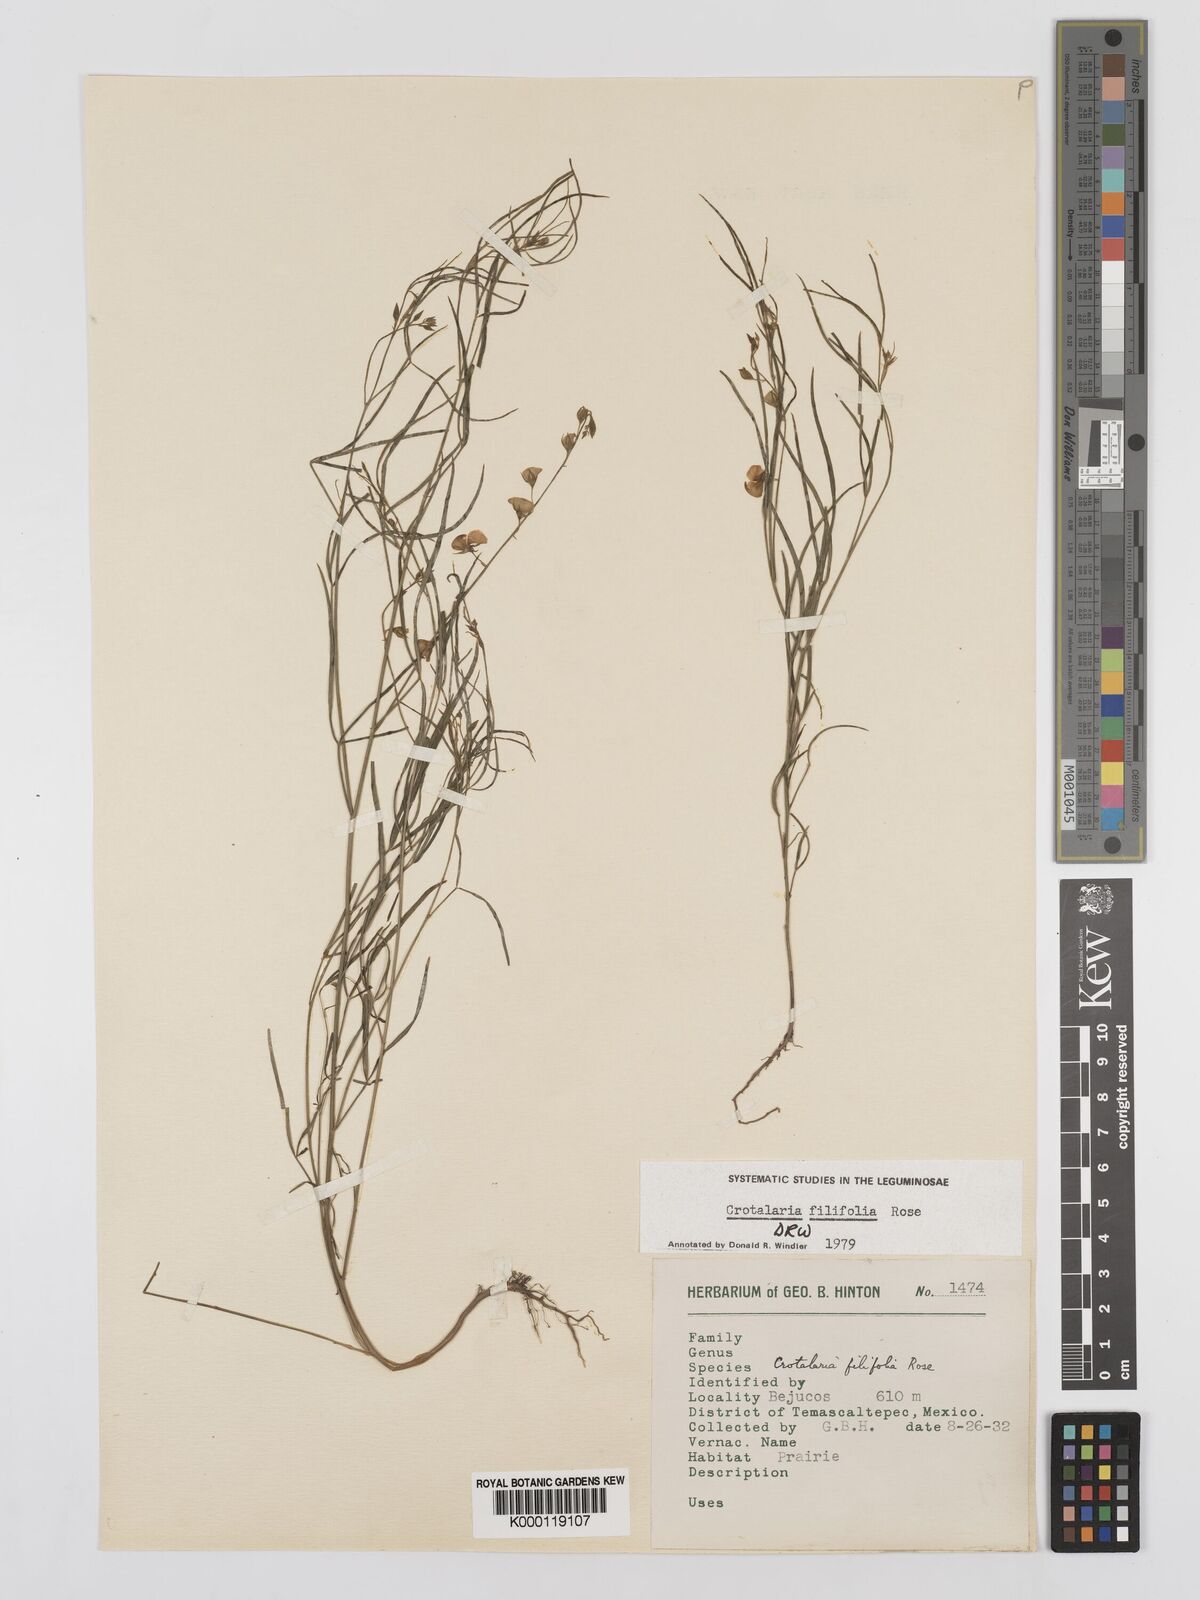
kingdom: Plantae
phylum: Tracheophyta
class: Magnoliopsida
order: Fabales
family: Fabaceae
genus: Crotalaria
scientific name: Crotalaria filifolia
